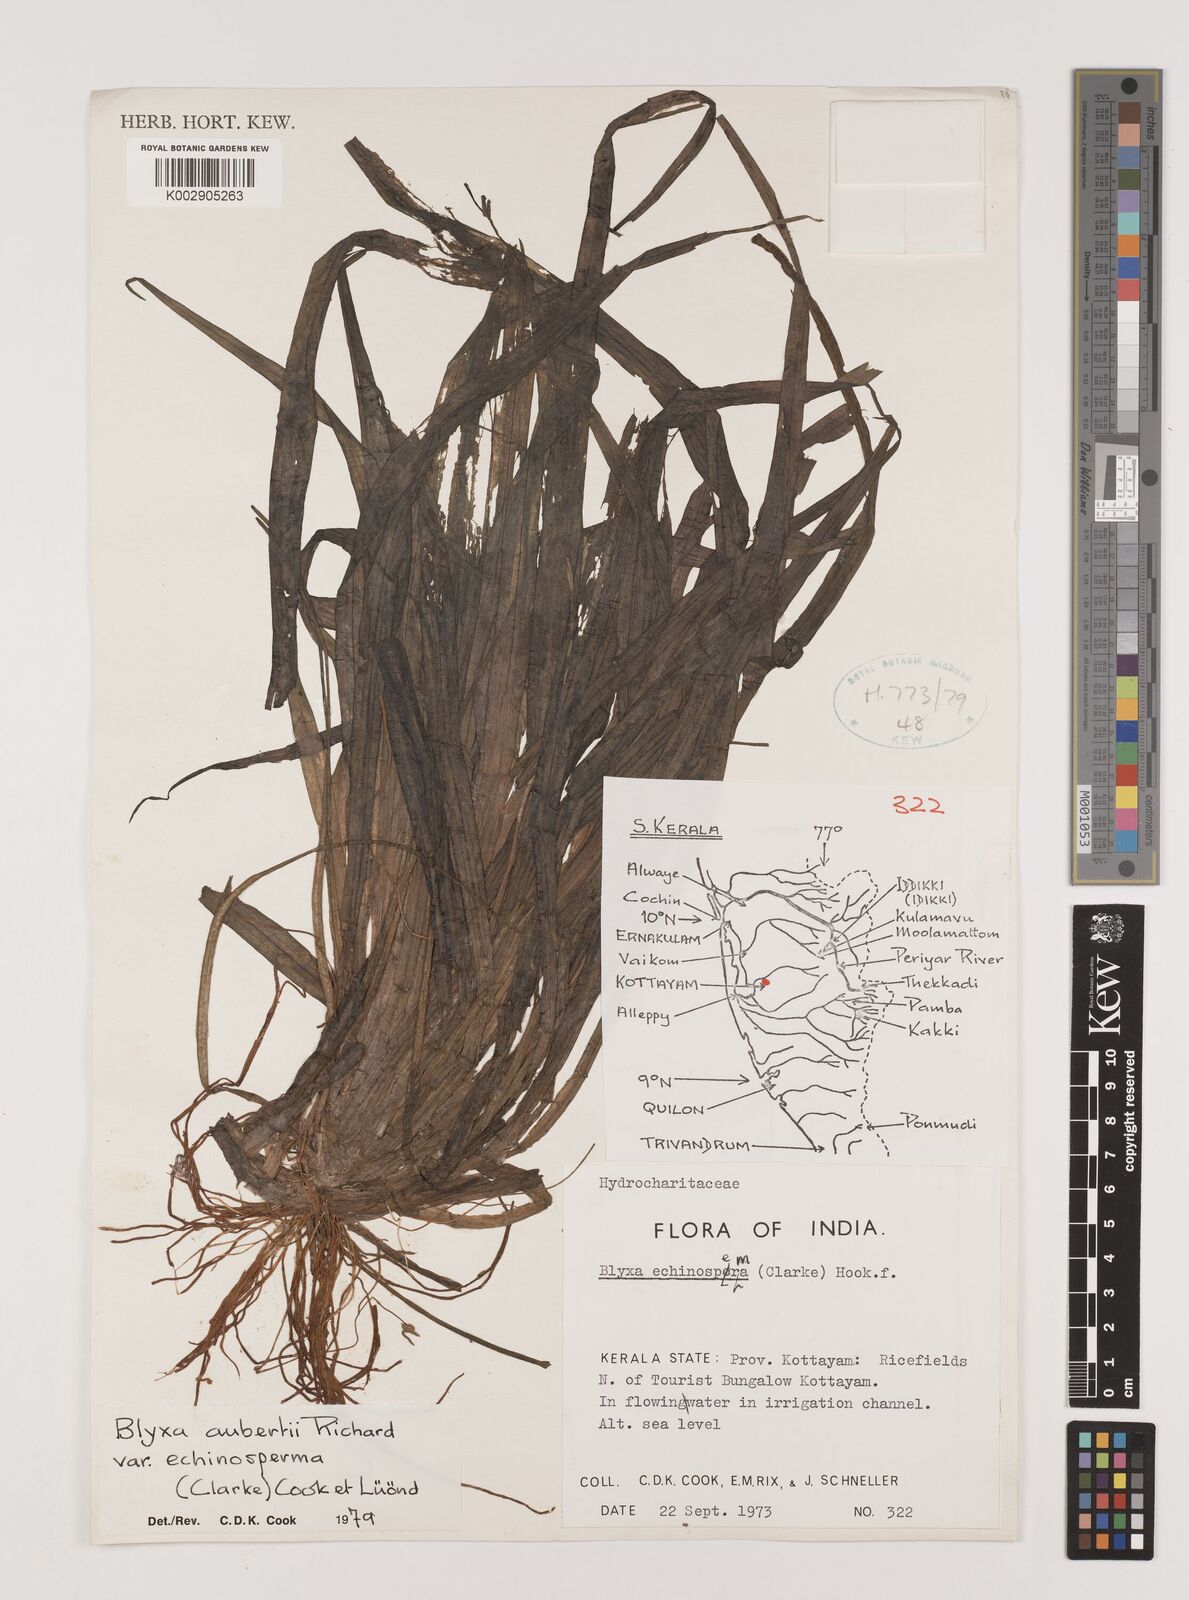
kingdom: Plantae
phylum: Tracheophyta
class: Liliopsida
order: Alismatales
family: Hydrocharitaceae
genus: Blyxa
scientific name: Blyxa echinosperma
